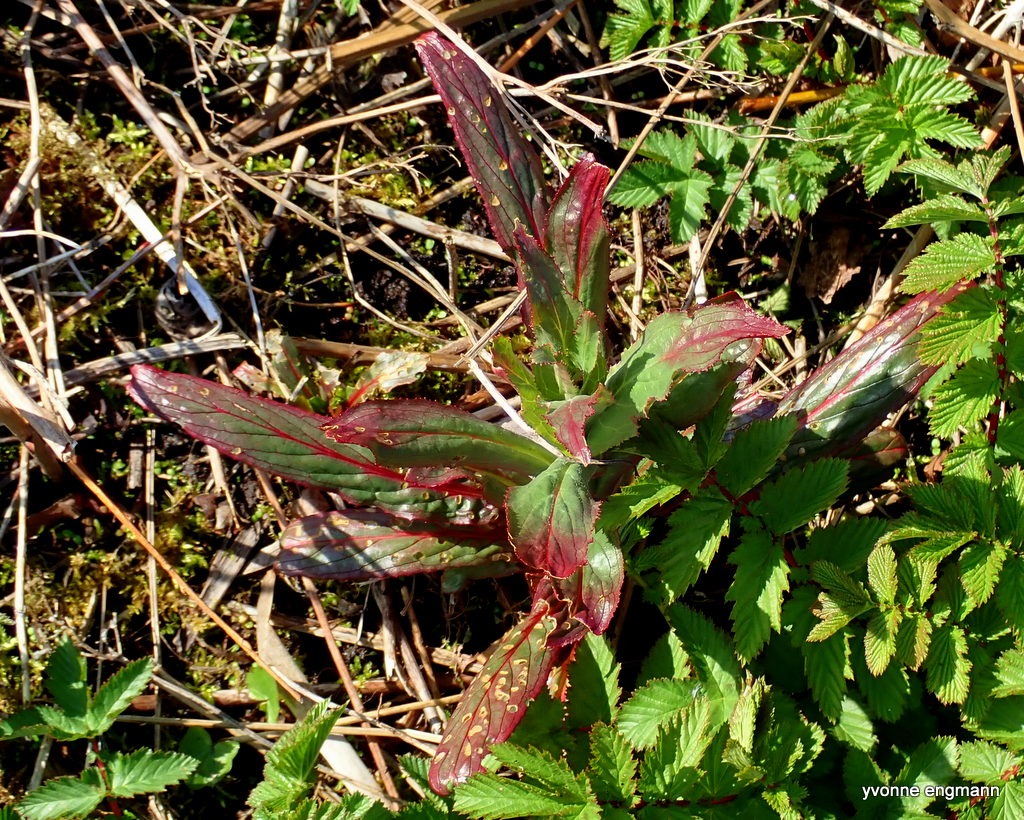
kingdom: Plantae
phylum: Tracheophyta
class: Magnoliopsida
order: Myrtales
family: Onagraceae
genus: Epilobium
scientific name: Epilobium hirsutum
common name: Lådden dueurt
